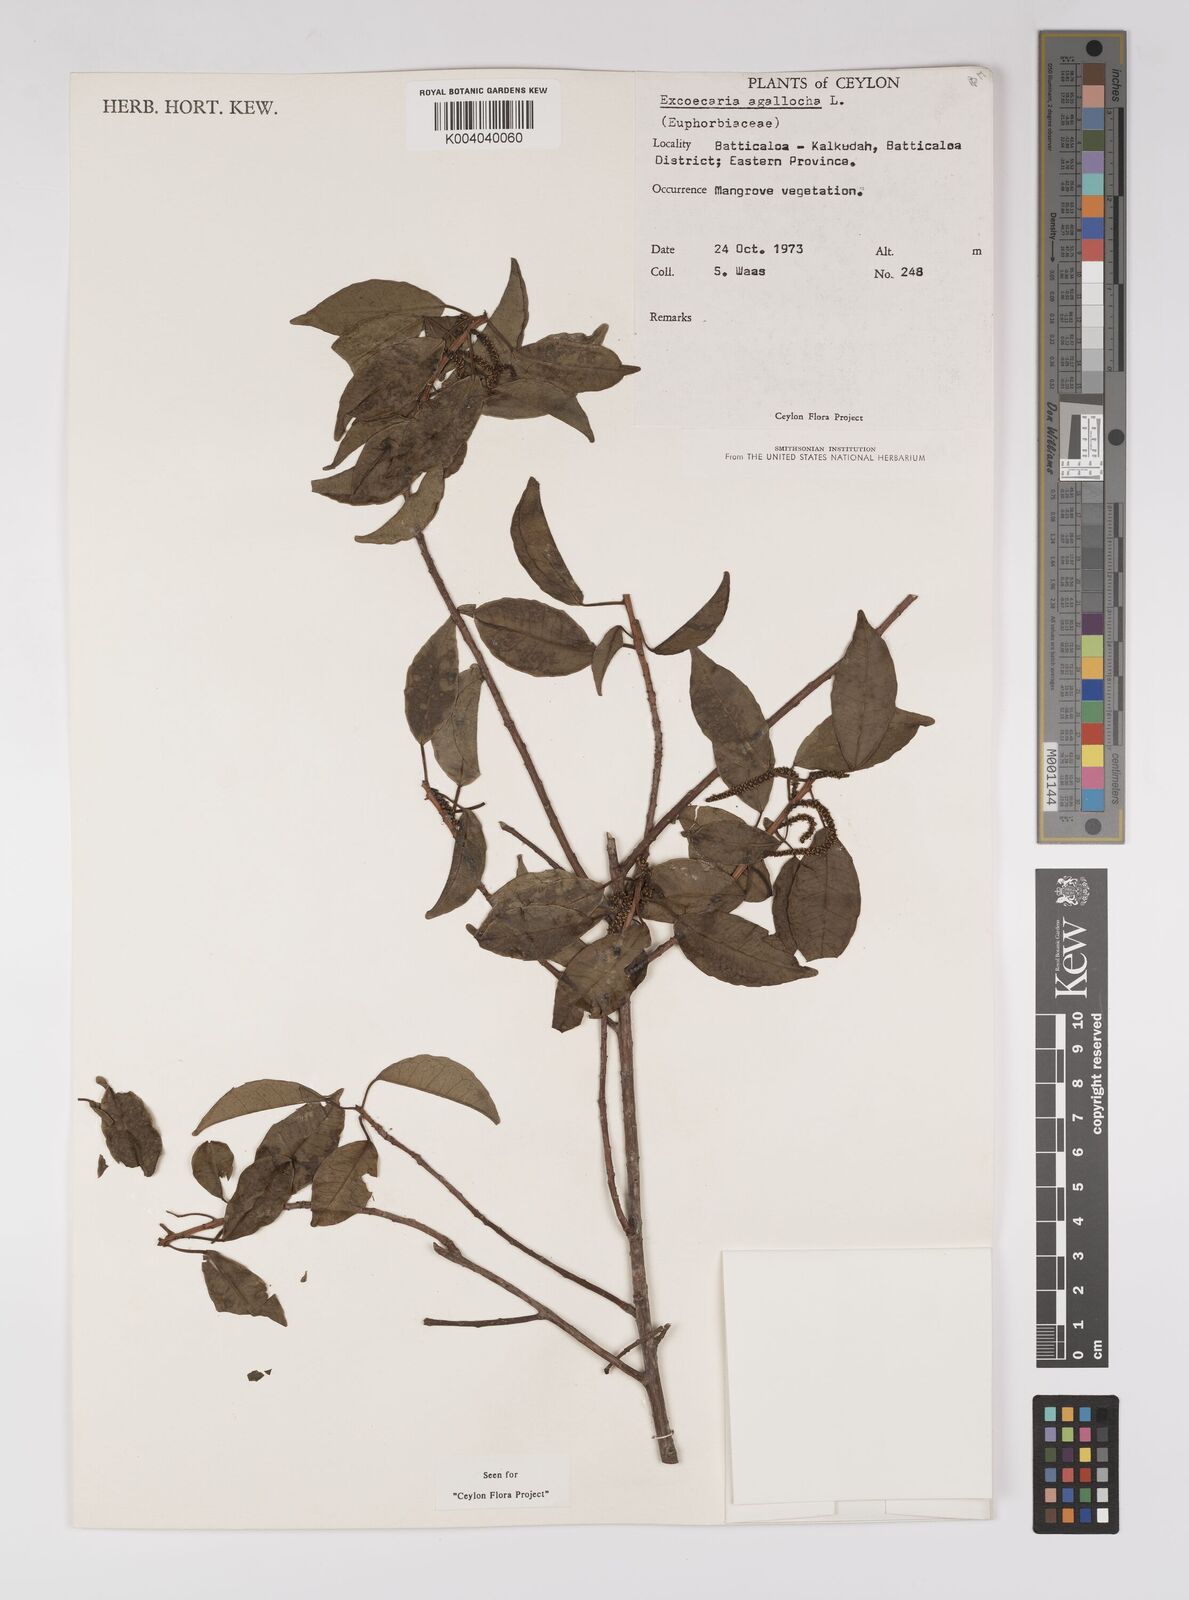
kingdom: Plantae
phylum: Tracheophyta
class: Magnoliopsida
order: Malpighiales
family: Euphorbiaceae
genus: Excoecaria
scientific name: Excoecaria agallocha
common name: River poisontree
